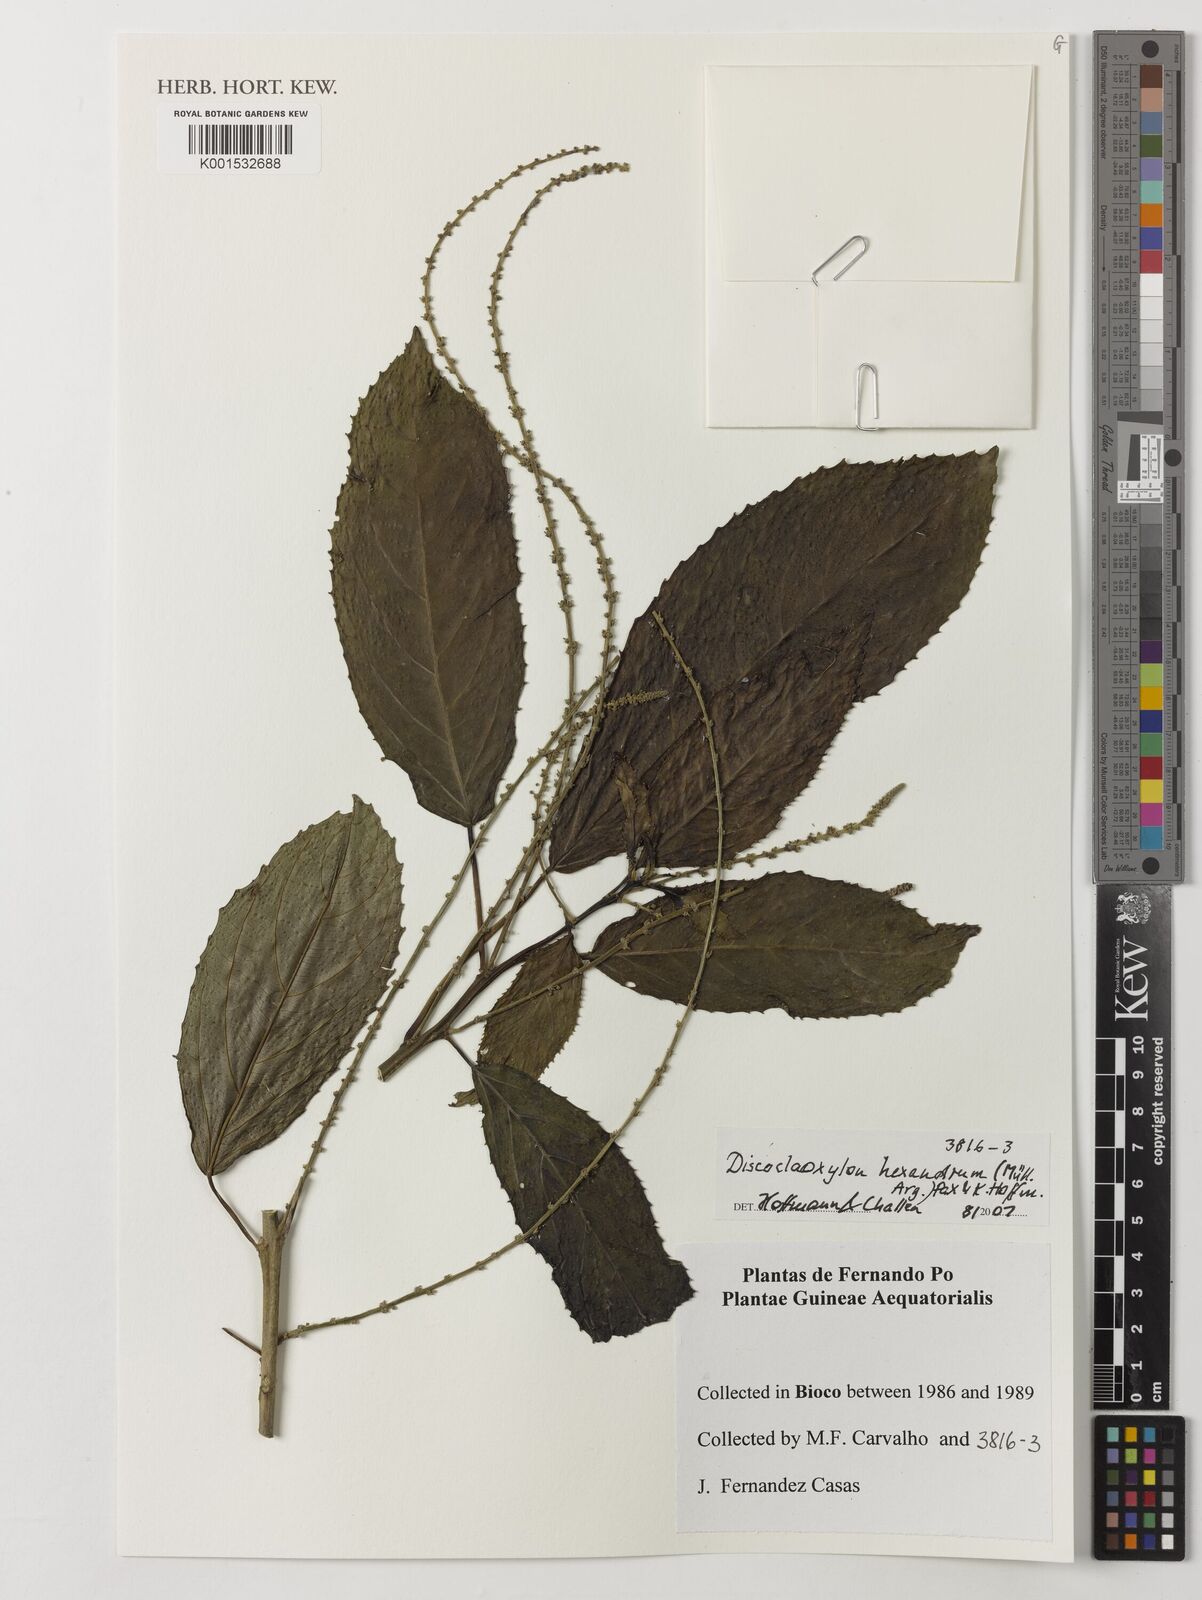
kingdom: Plantae
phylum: Tracheophyta
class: Magnoliopsida
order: Malpighiales
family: Euphorbiaceae
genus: Discoclaoxylon
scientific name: Discoclaoxylon hexandrum
